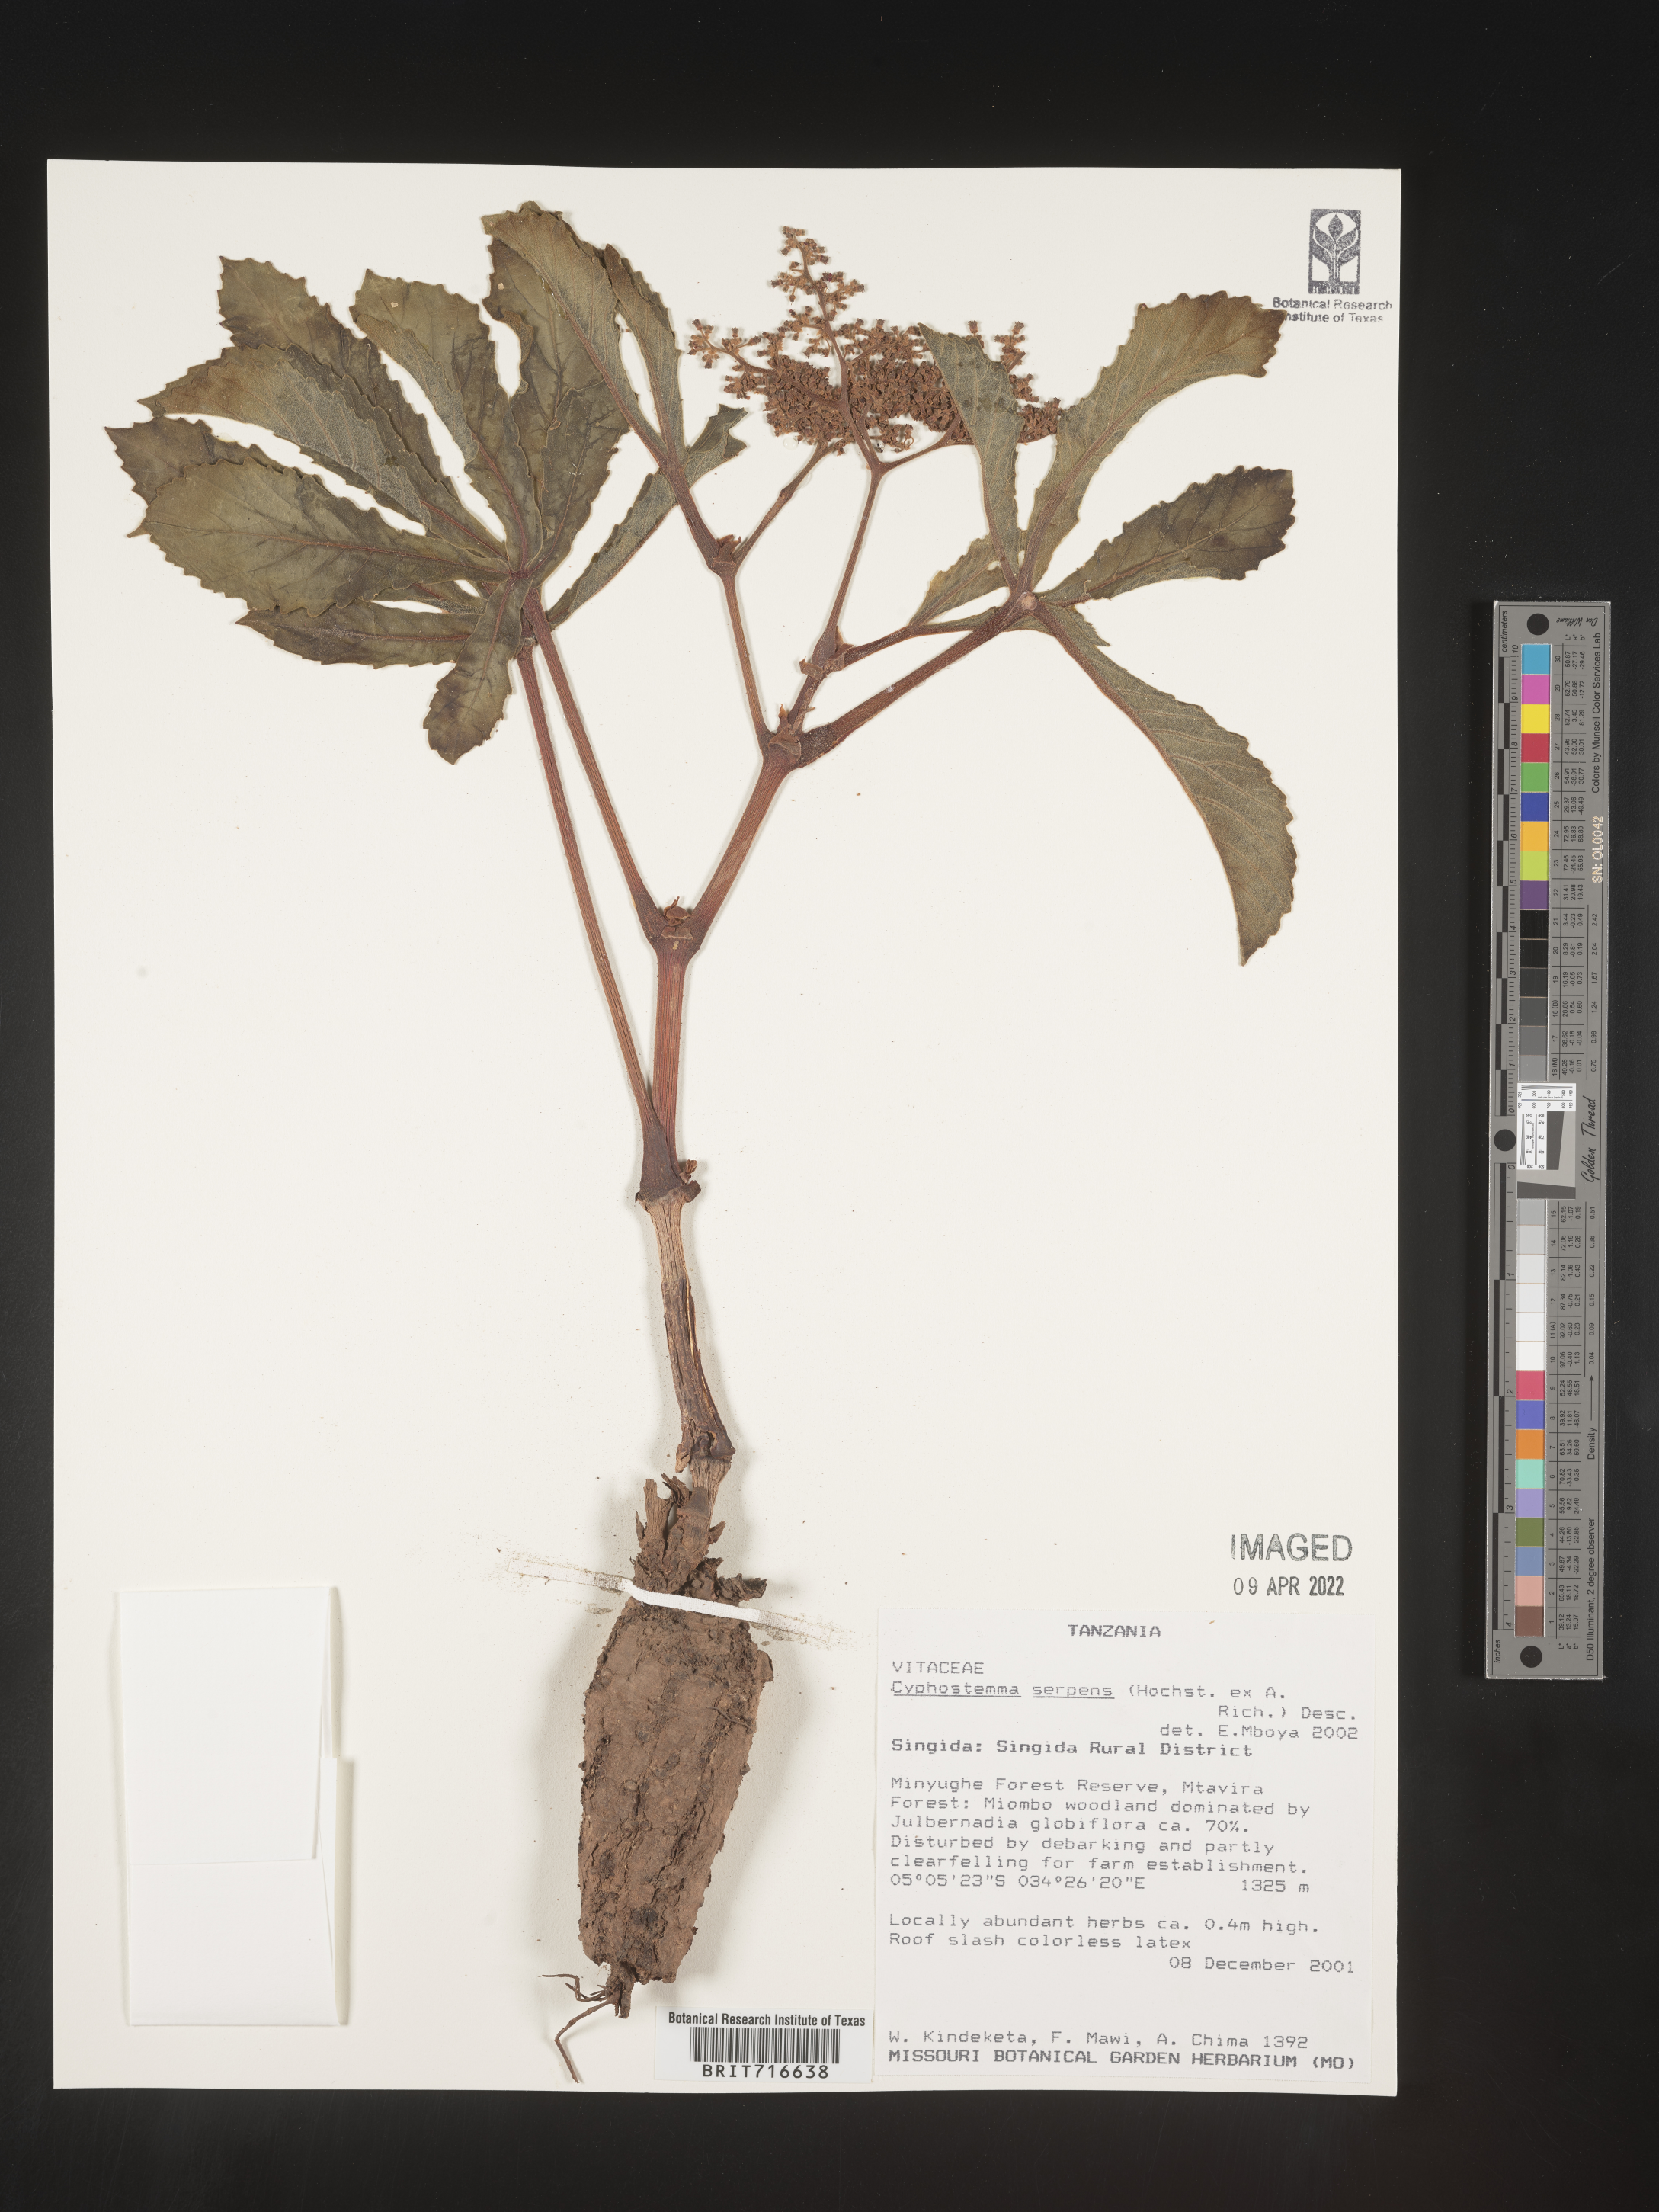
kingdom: Plantae
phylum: Tracheophyta
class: Magnoliopsida
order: Vitales
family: Vitaceae
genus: Cyphostemma
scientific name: Cyphostemma
